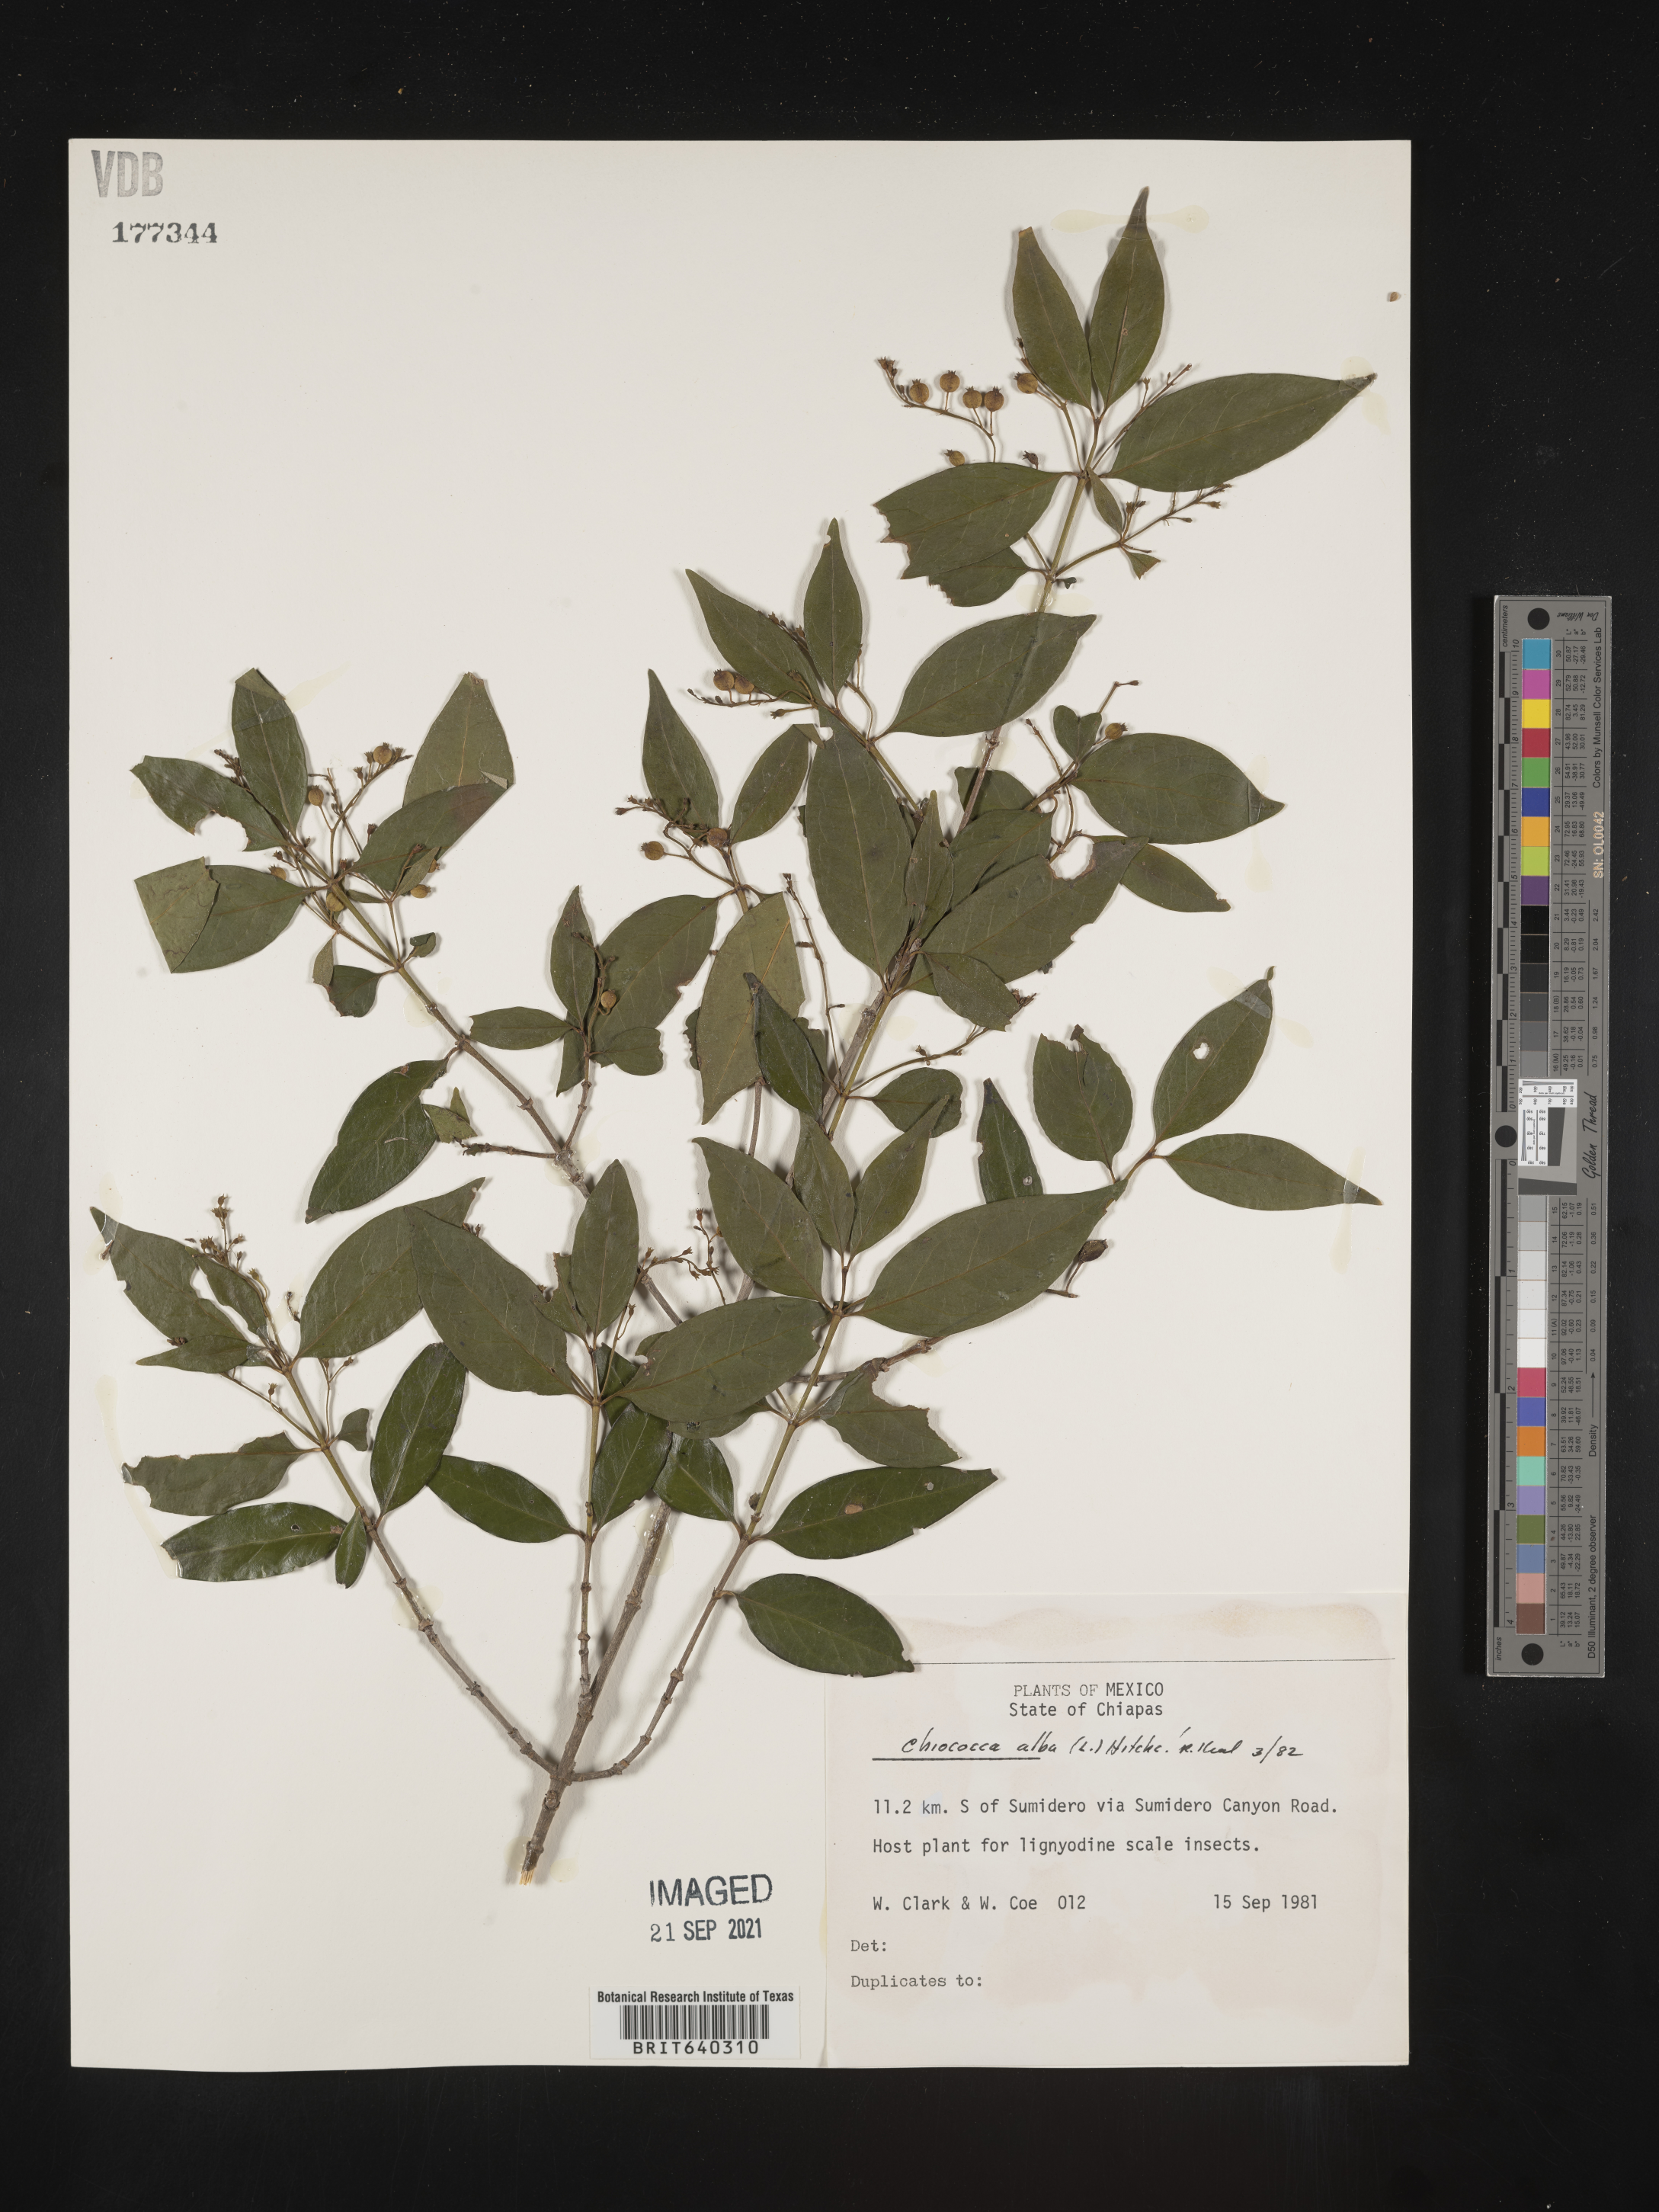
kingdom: Plantae
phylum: Tracheophyta
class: Magnoliopsida
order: Gentianales
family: Rubiaceae
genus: Chiococca
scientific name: Chiococca
